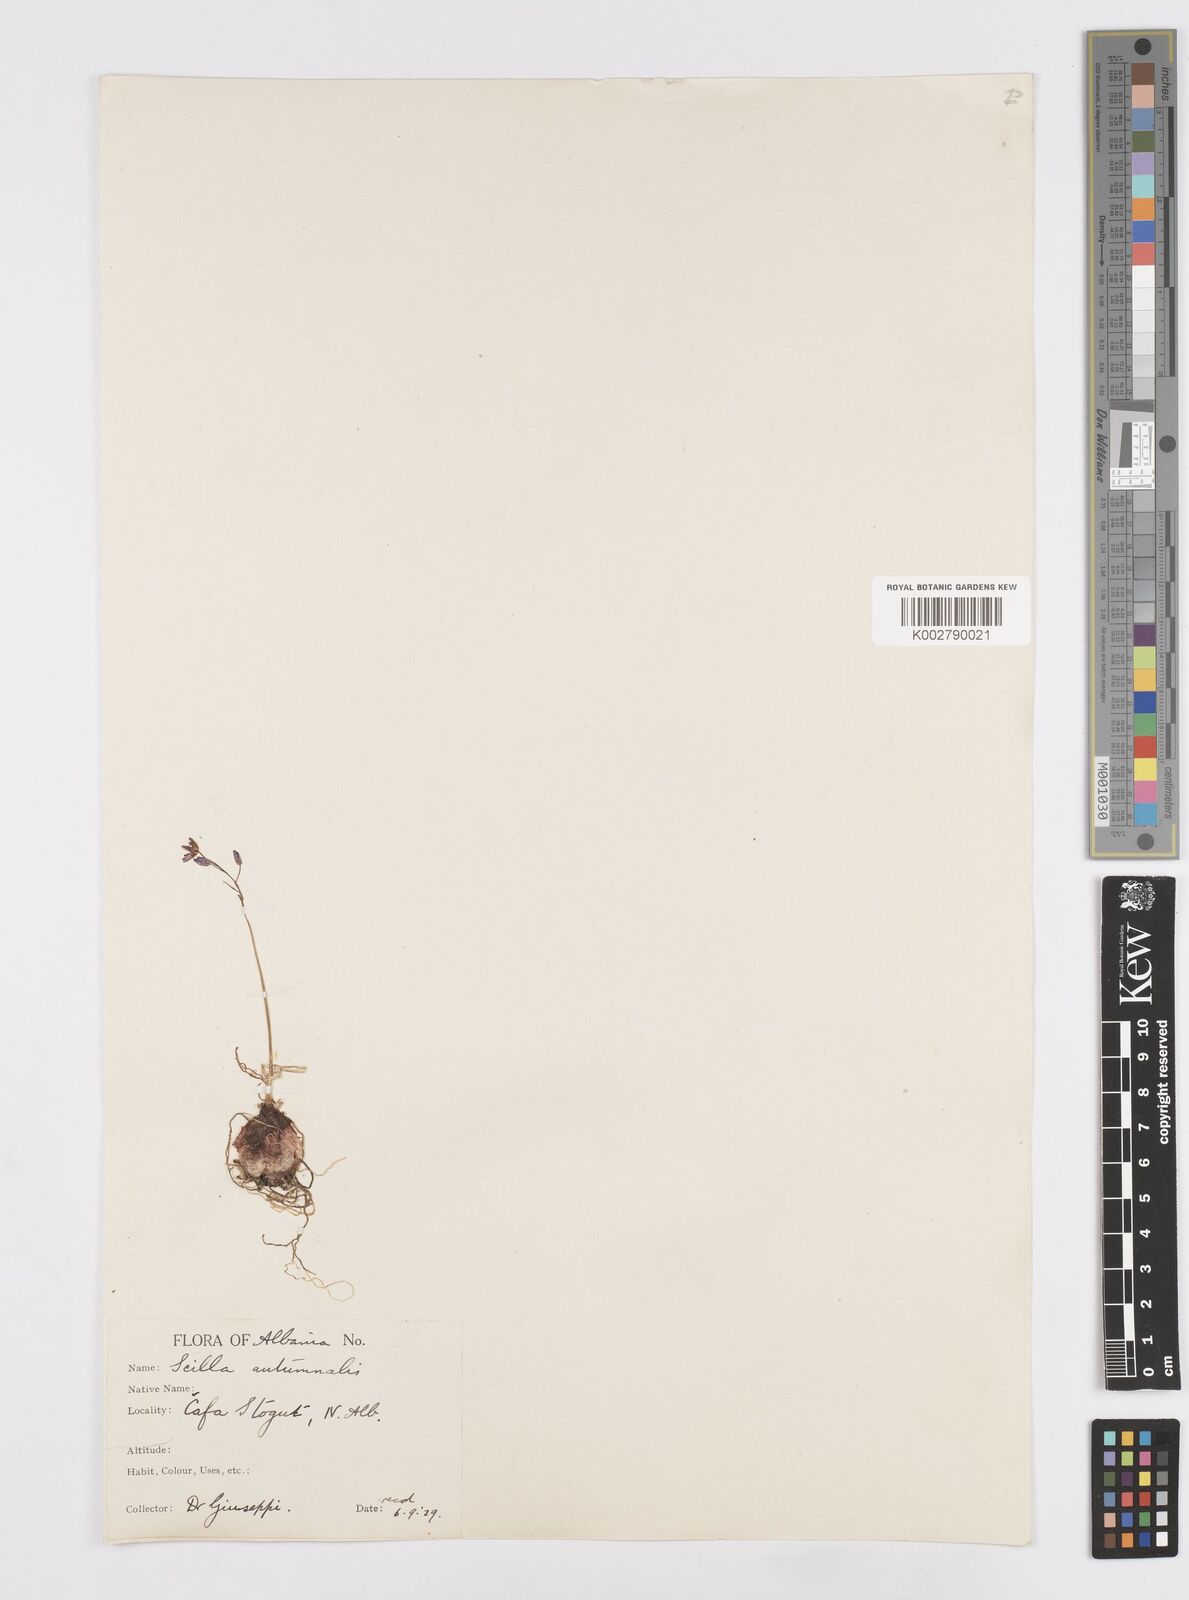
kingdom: Plantae
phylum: Tracheophyta
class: Liliopsida
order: Asparagales
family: Asparagaceae
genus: Prospero
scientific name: Prospero autumnale
